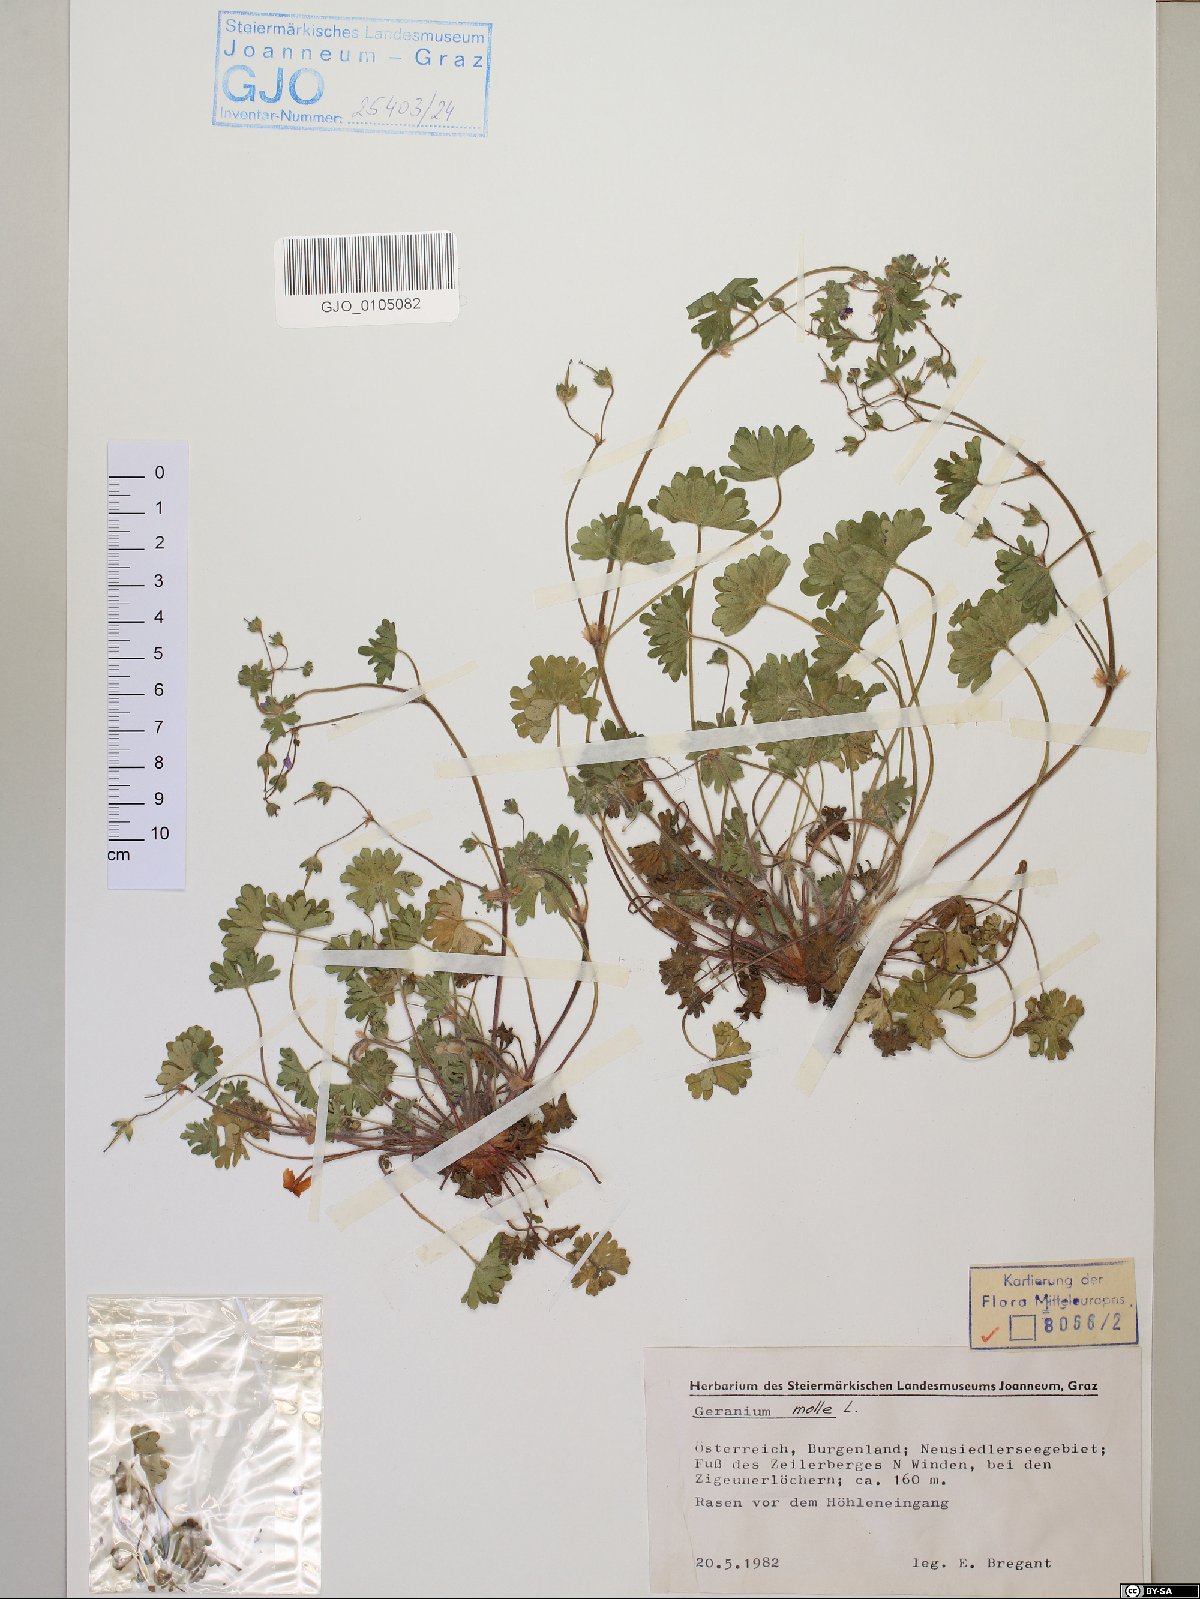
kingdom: Plantae
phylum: Tracheophyta
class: Magnoliopsida
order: Geraniales
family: Geraniaceae
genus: Geranium
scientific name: Geranium molle
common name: Dove's-foot crane's-bill
